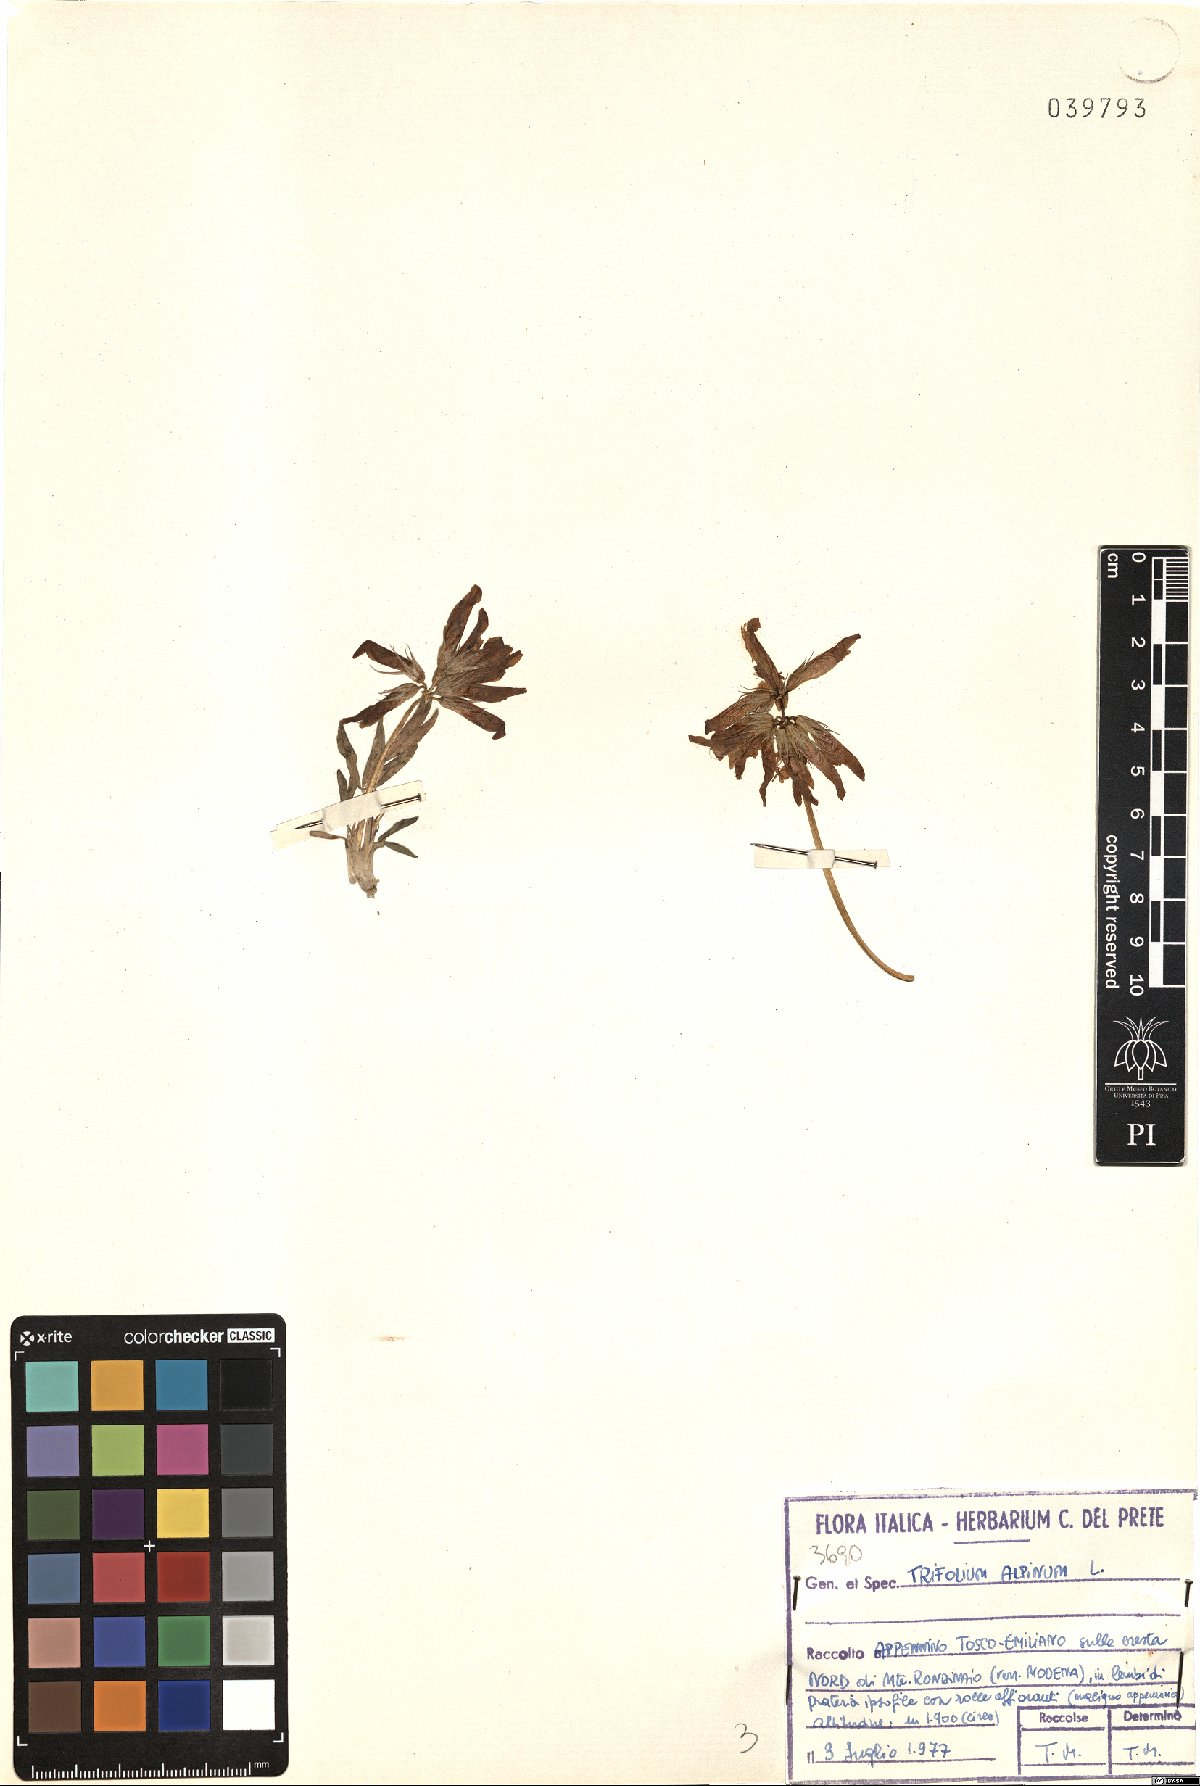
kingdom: Plantae
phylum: Tracheophyta
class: Magnoliopsida
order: Fabales
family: Fabaceae
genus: Trifolium
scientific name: Trifolium alpinum
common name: Alpine clover
